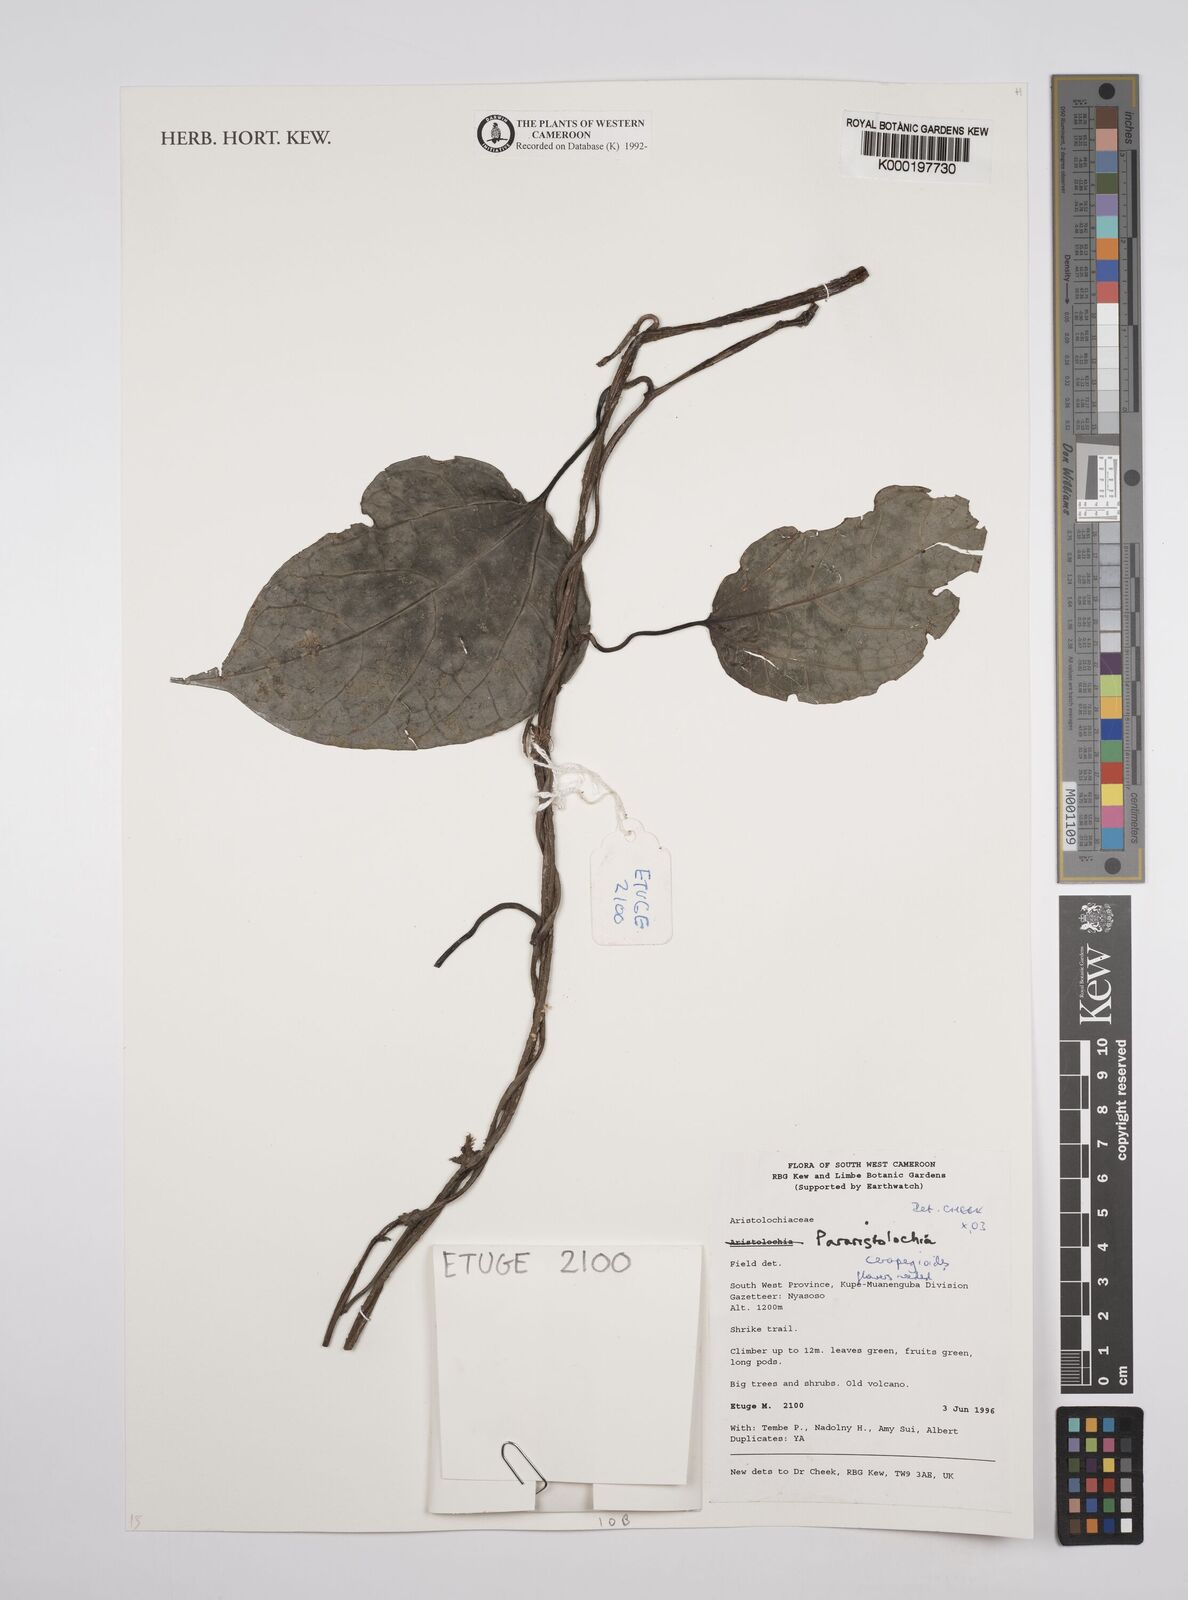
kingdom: Plantae
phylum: Tracheophyta
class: Magnoliopsida
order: Piperales
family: Aristolochiaceae
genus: Aristolochia
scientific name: Aristolochia ceropegioides
